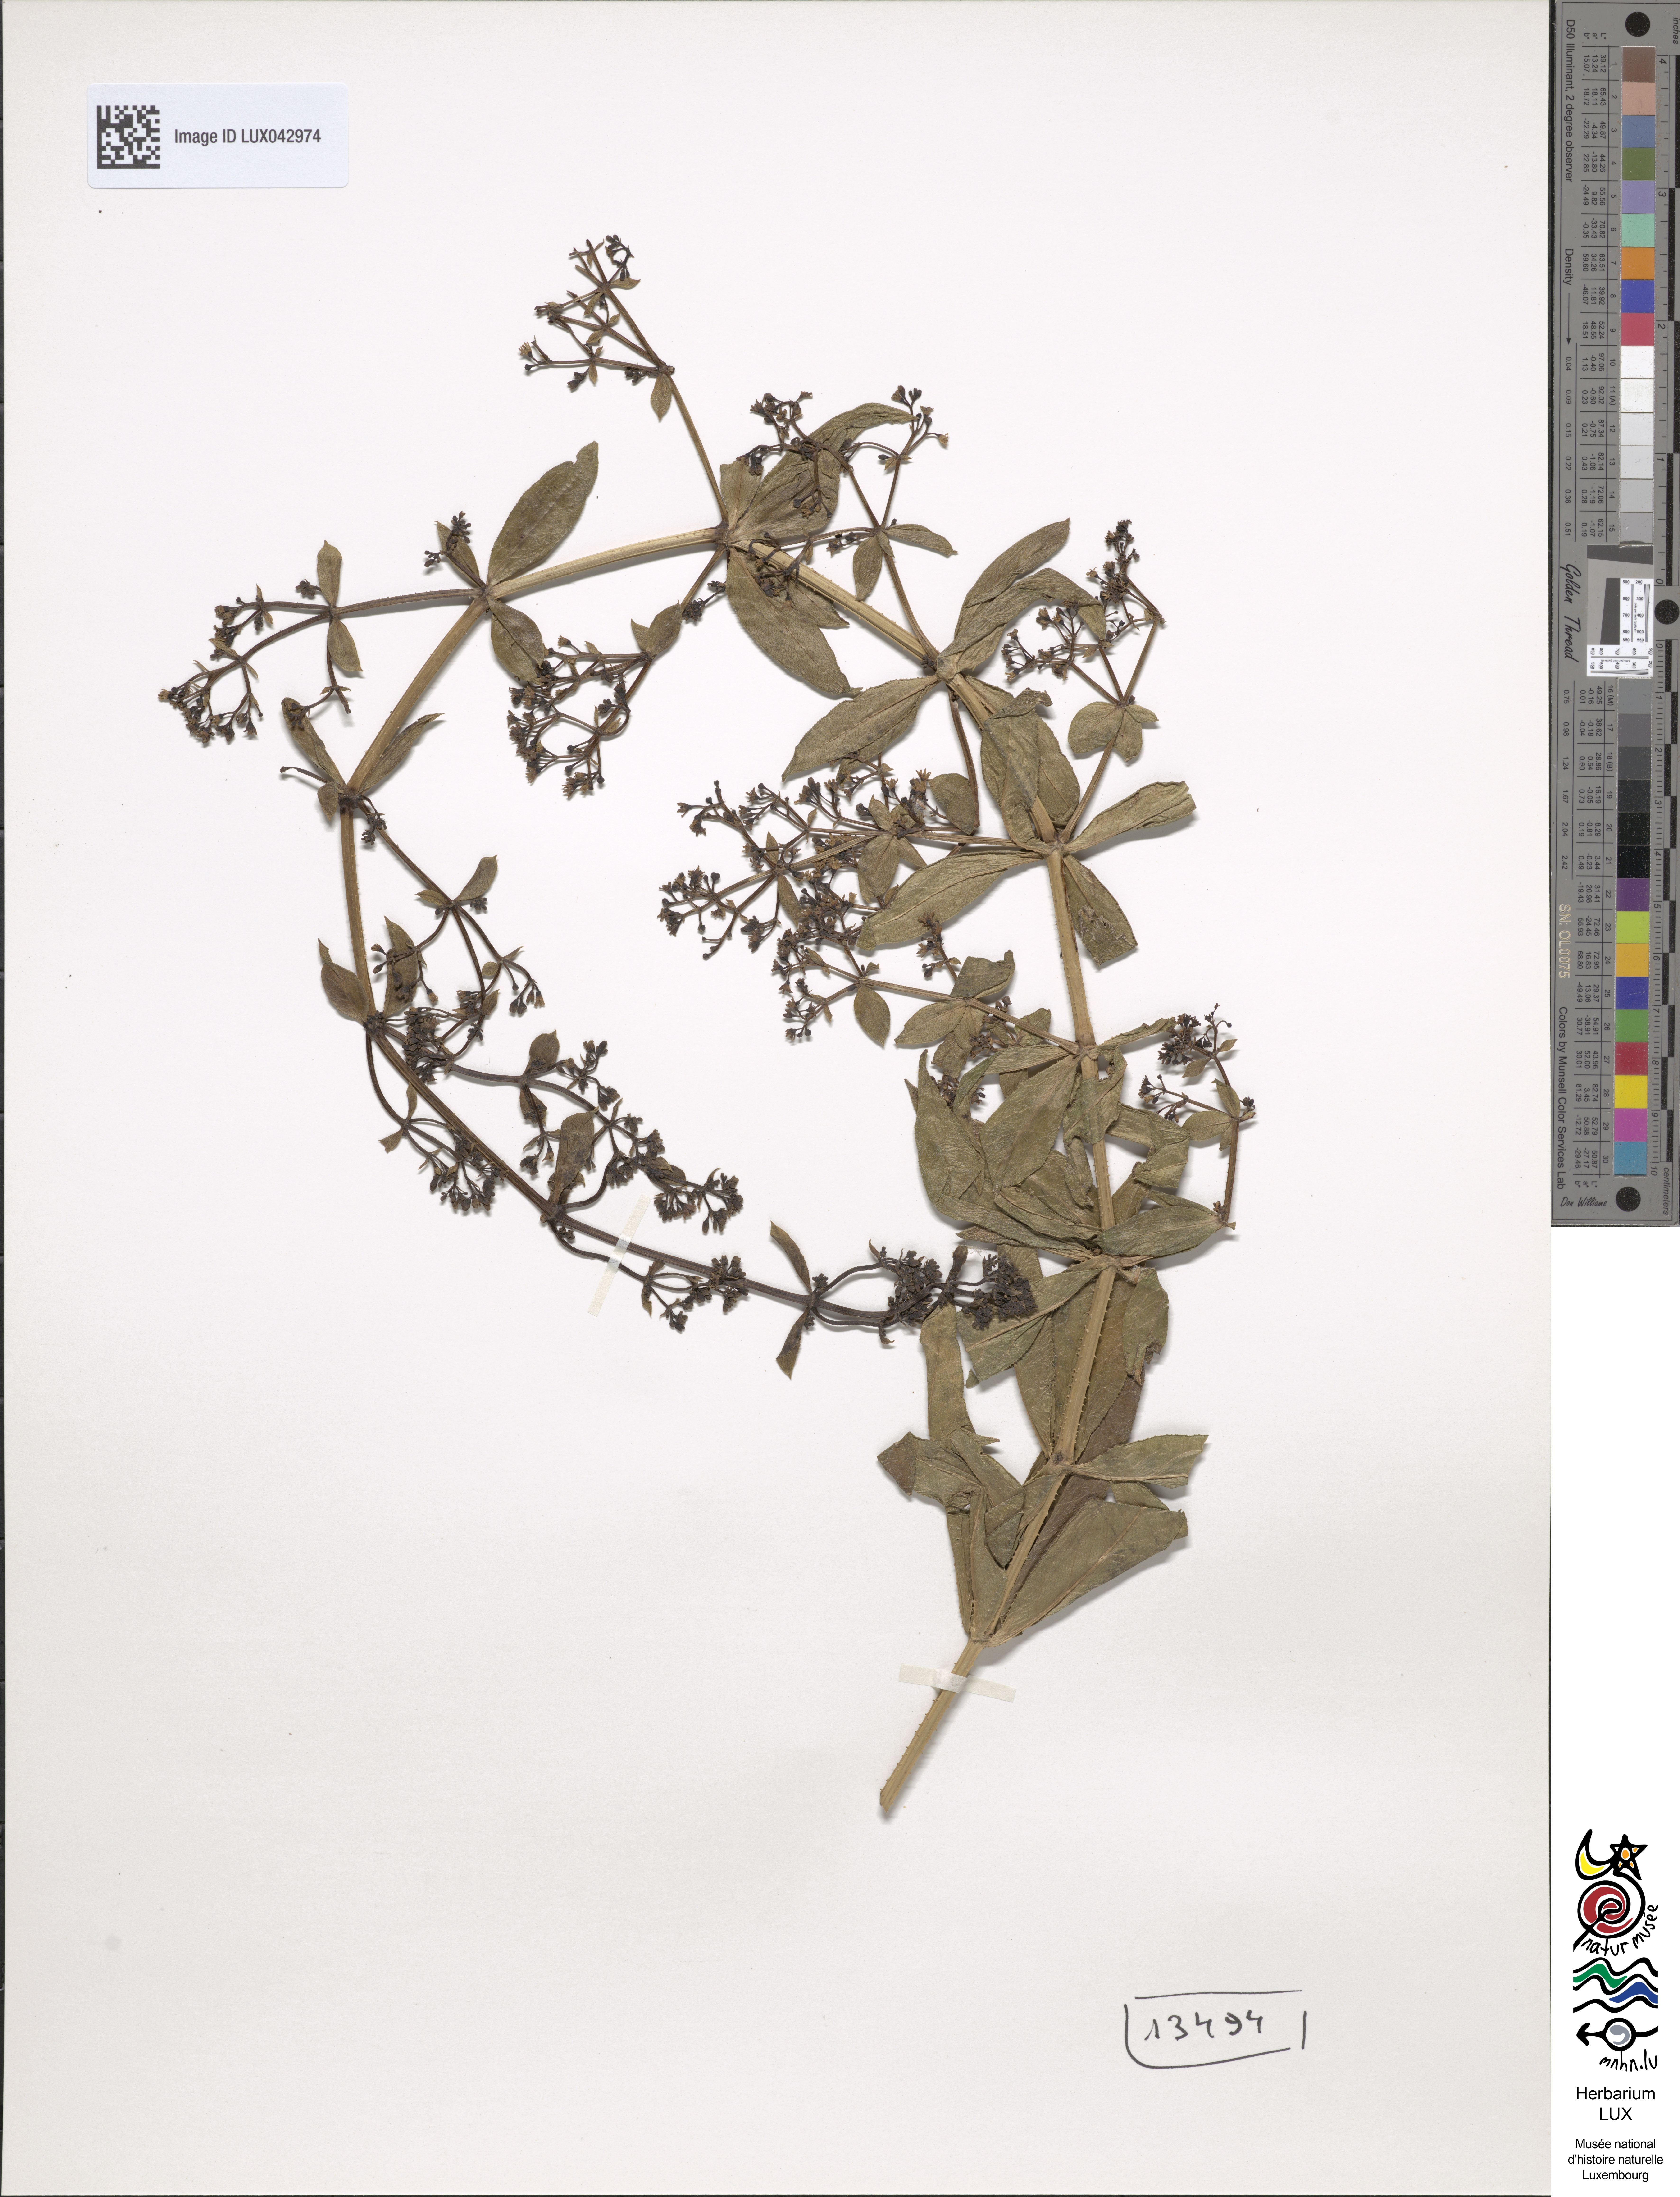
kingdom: Plantae
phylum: Tracheophyta
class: Magnoliopsida
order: Gentianales
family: Rubiaceae
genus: Rubia
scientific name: Rubia tinctorum
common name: Dyer's madder
